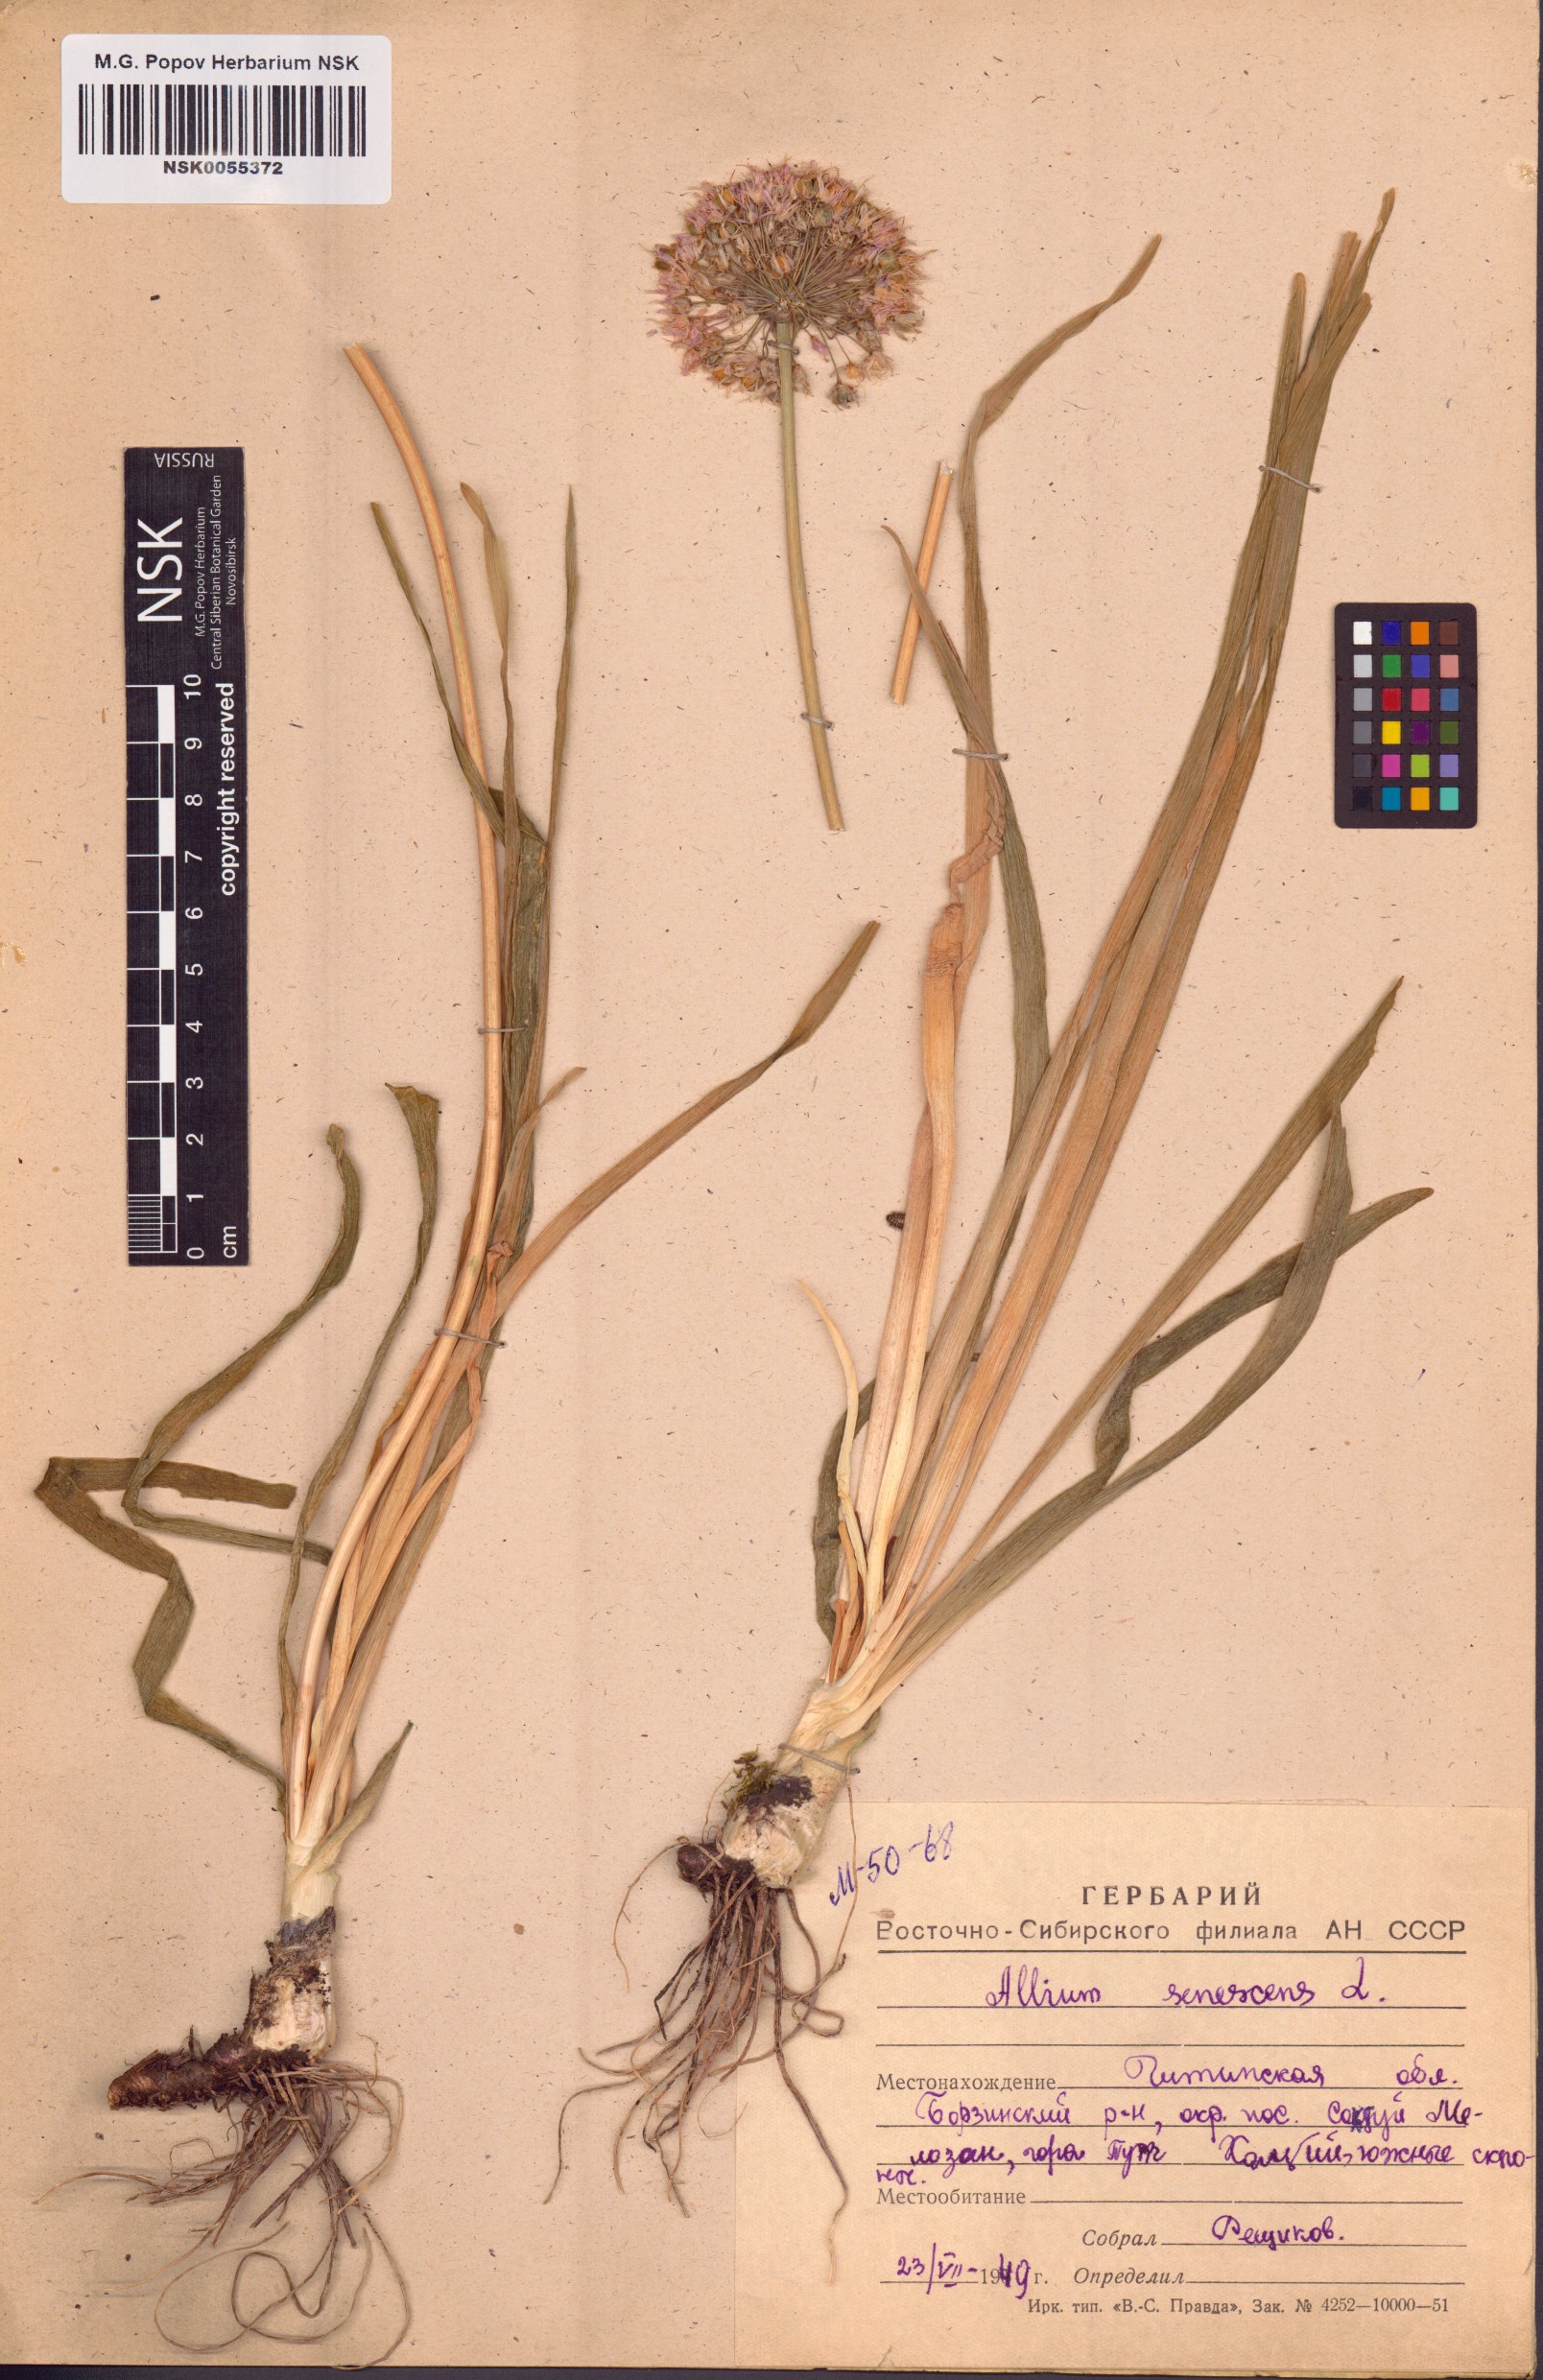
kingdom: Plantae
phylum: Tracheophyta
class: Liliopsida
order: Asparagales
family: Amaryllidaceae
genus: Allium
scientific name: Allium senescens
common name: German garlic
